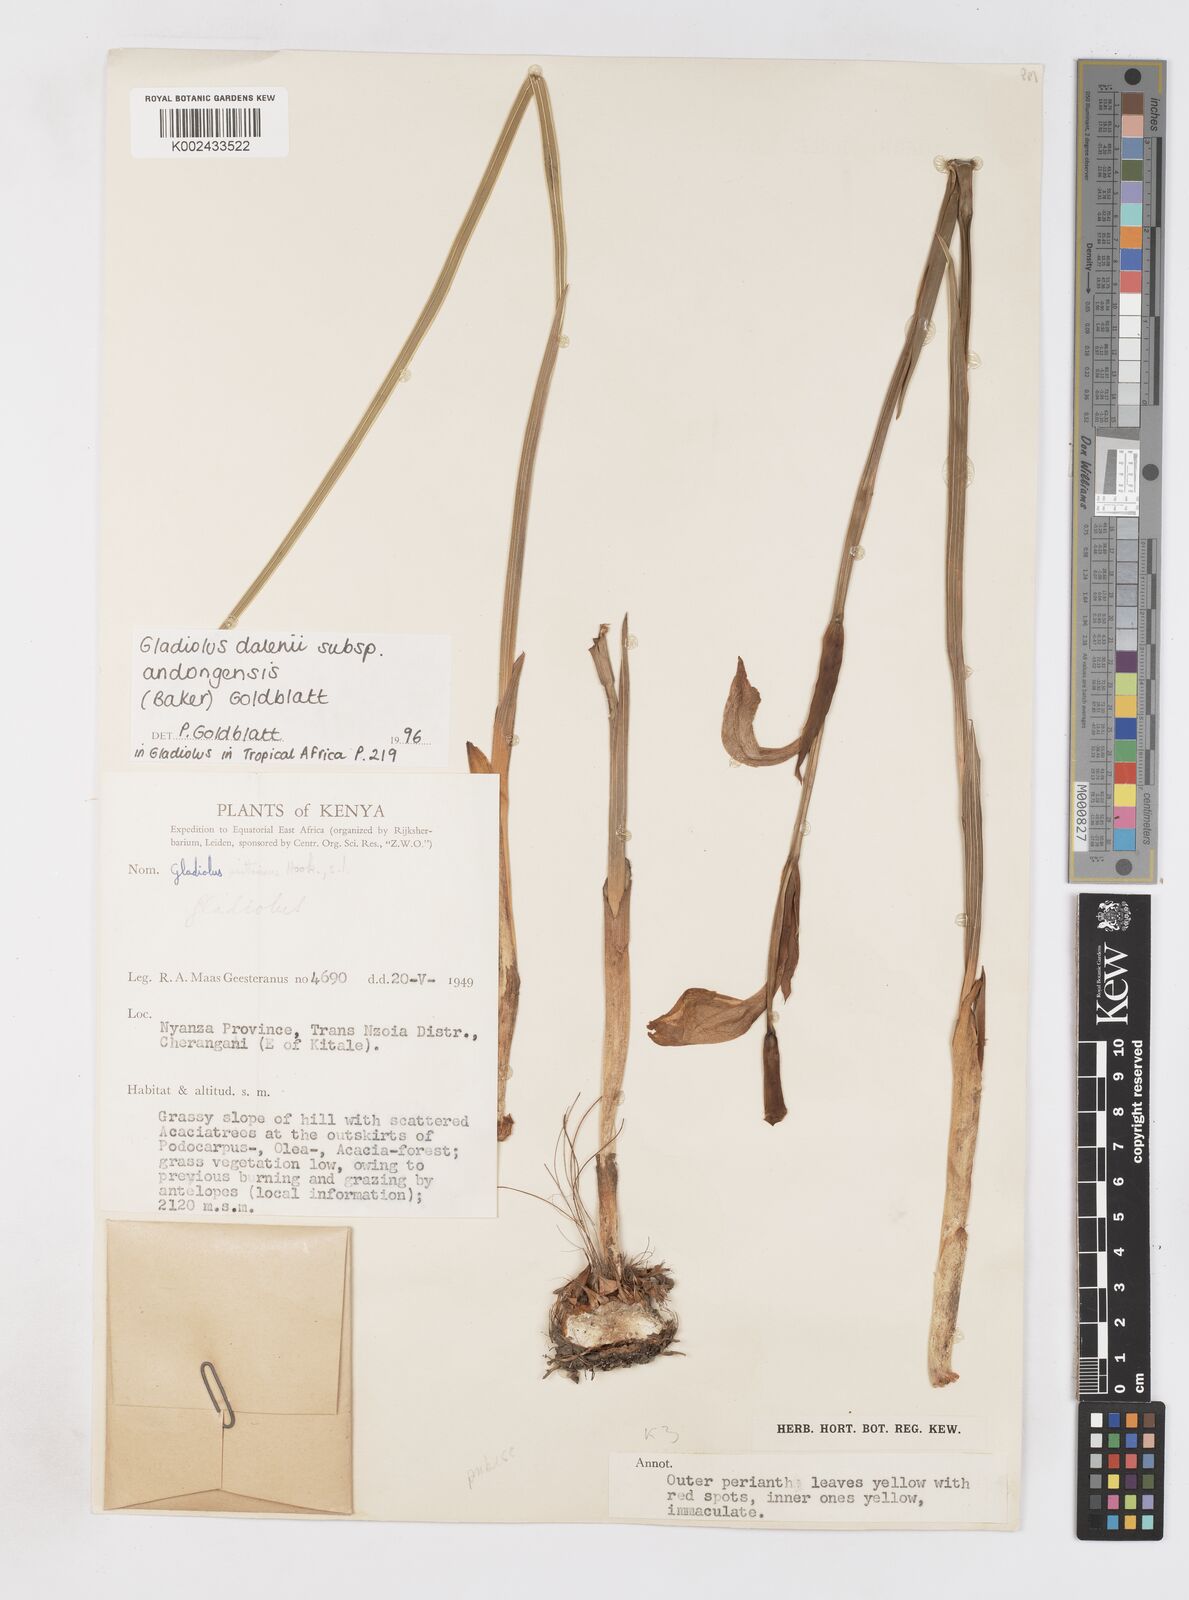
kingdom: Plantae
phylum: Tracheophyta
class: Liliopsida
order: Asparagales
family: Iridaceae
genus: Gladiolus
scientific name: Gladiolus dalenii
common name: Cornflag
